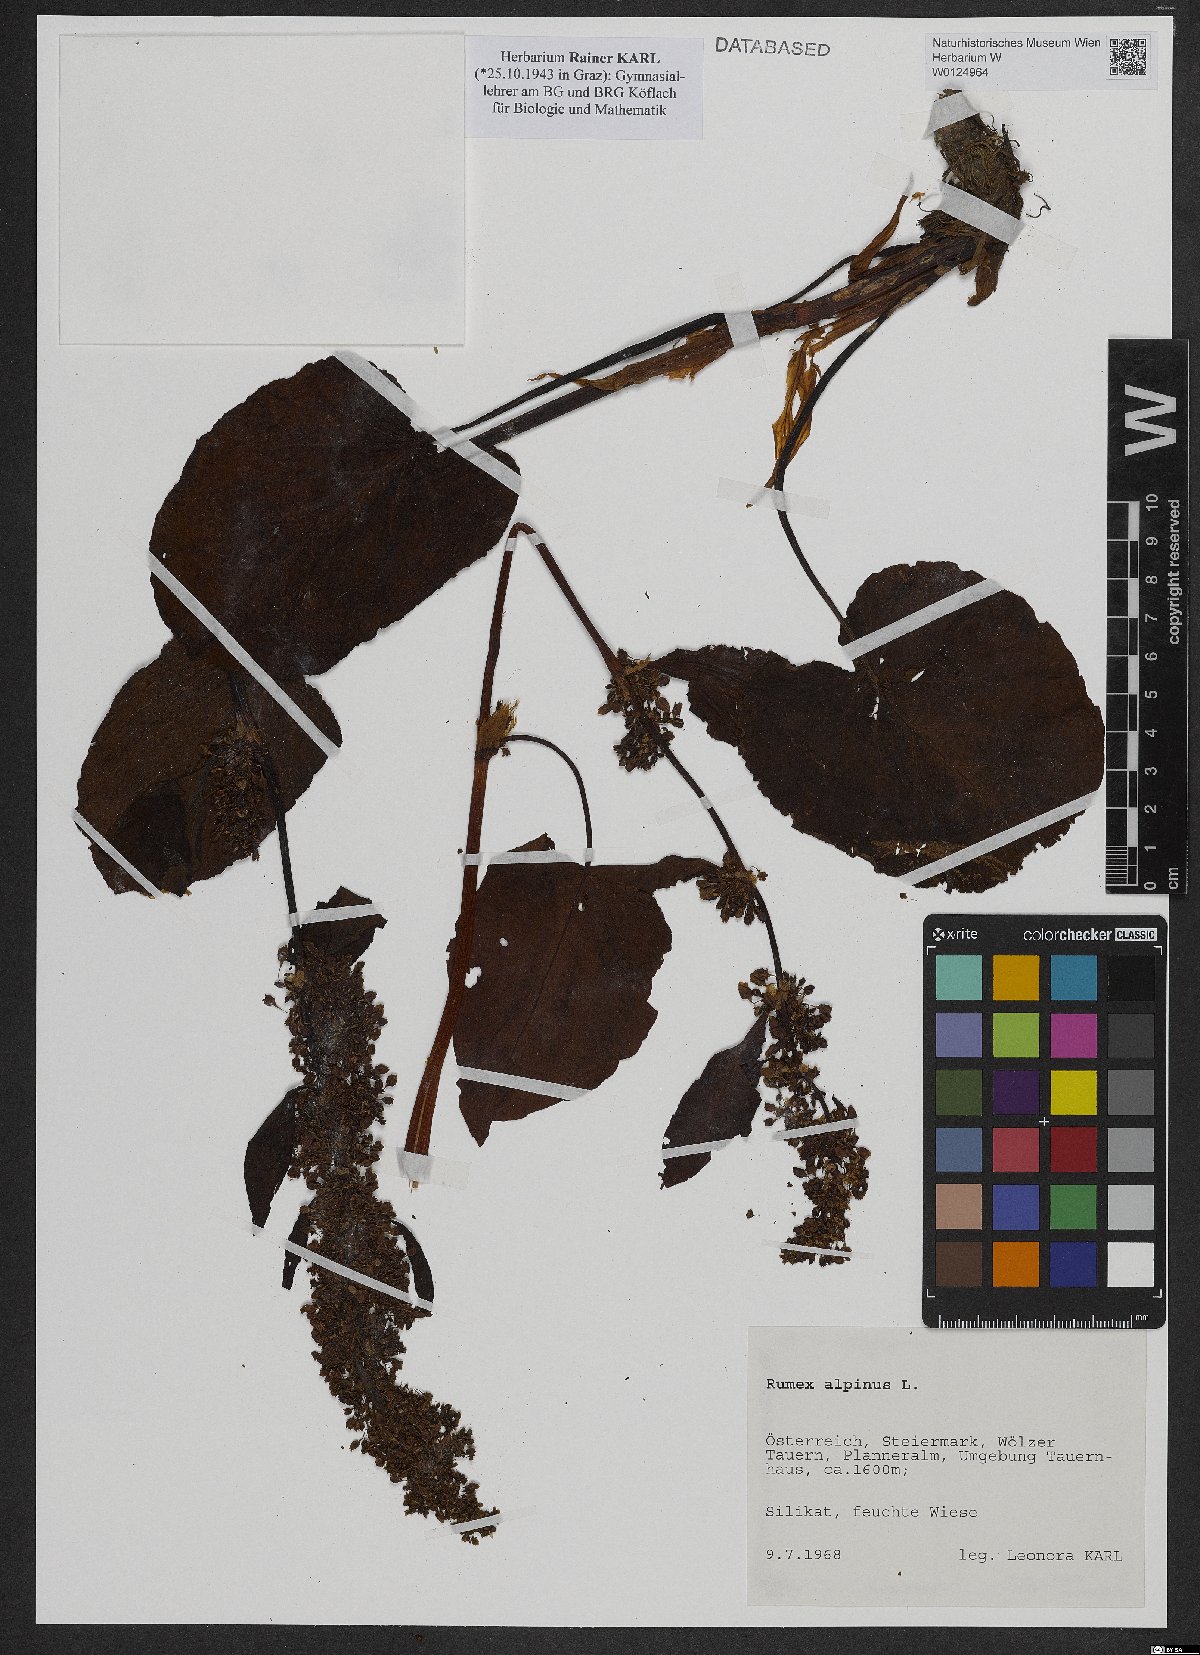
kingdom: Plantae
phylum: Tracheophyta
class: Magnoliopsida
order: Caryophyllales
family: Polygonaceae
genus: Rumex
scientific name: Rumex alpinus
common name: Alpine dock
